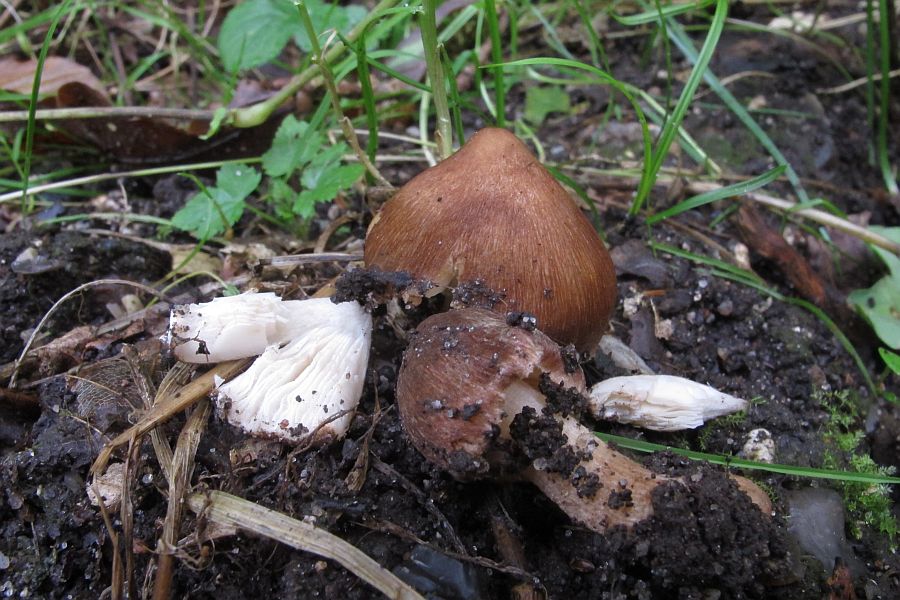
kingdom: Fungi
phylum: Basidiomycota
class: Agaricomycetes
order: Agaricales
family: Inocybaceae
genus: Inosperma
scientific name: Inosperma
